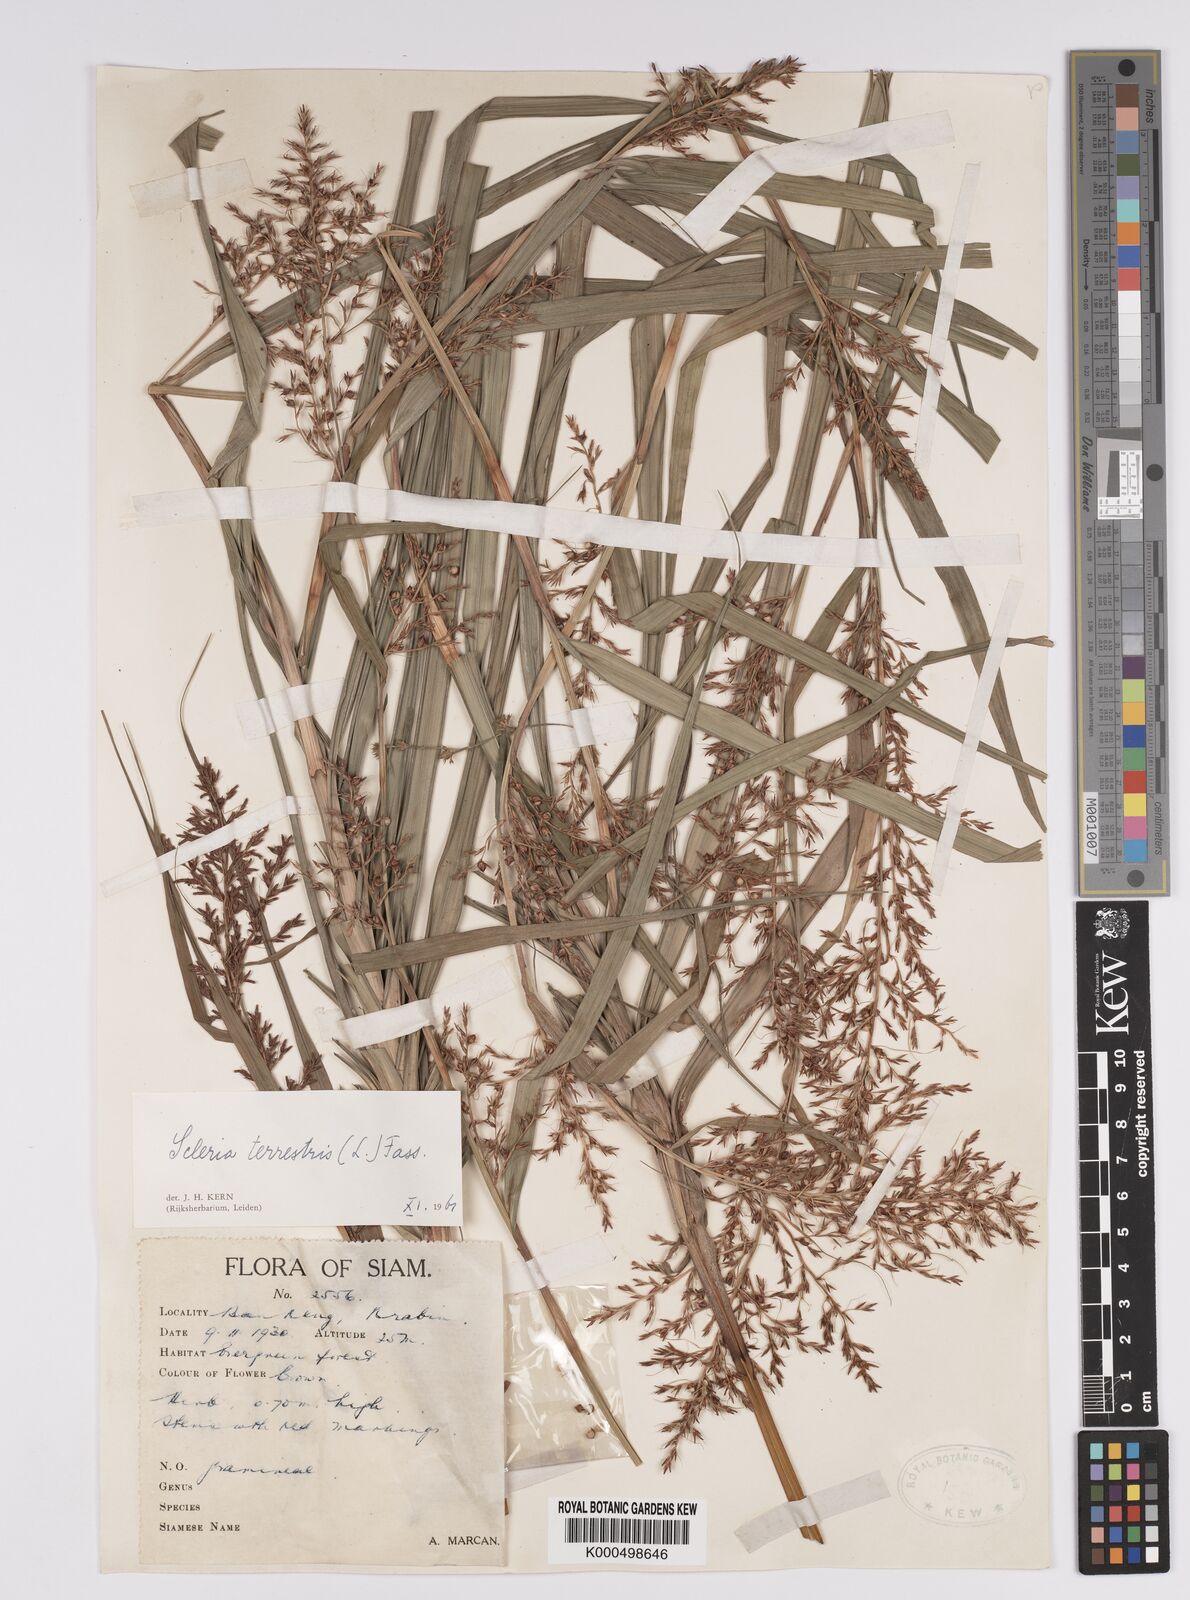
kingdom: Plantae
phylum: Tracheophyta
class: Liliopsida
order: Poales
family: Cyperaceae
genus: Scleria
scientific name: Scleria terrestris
